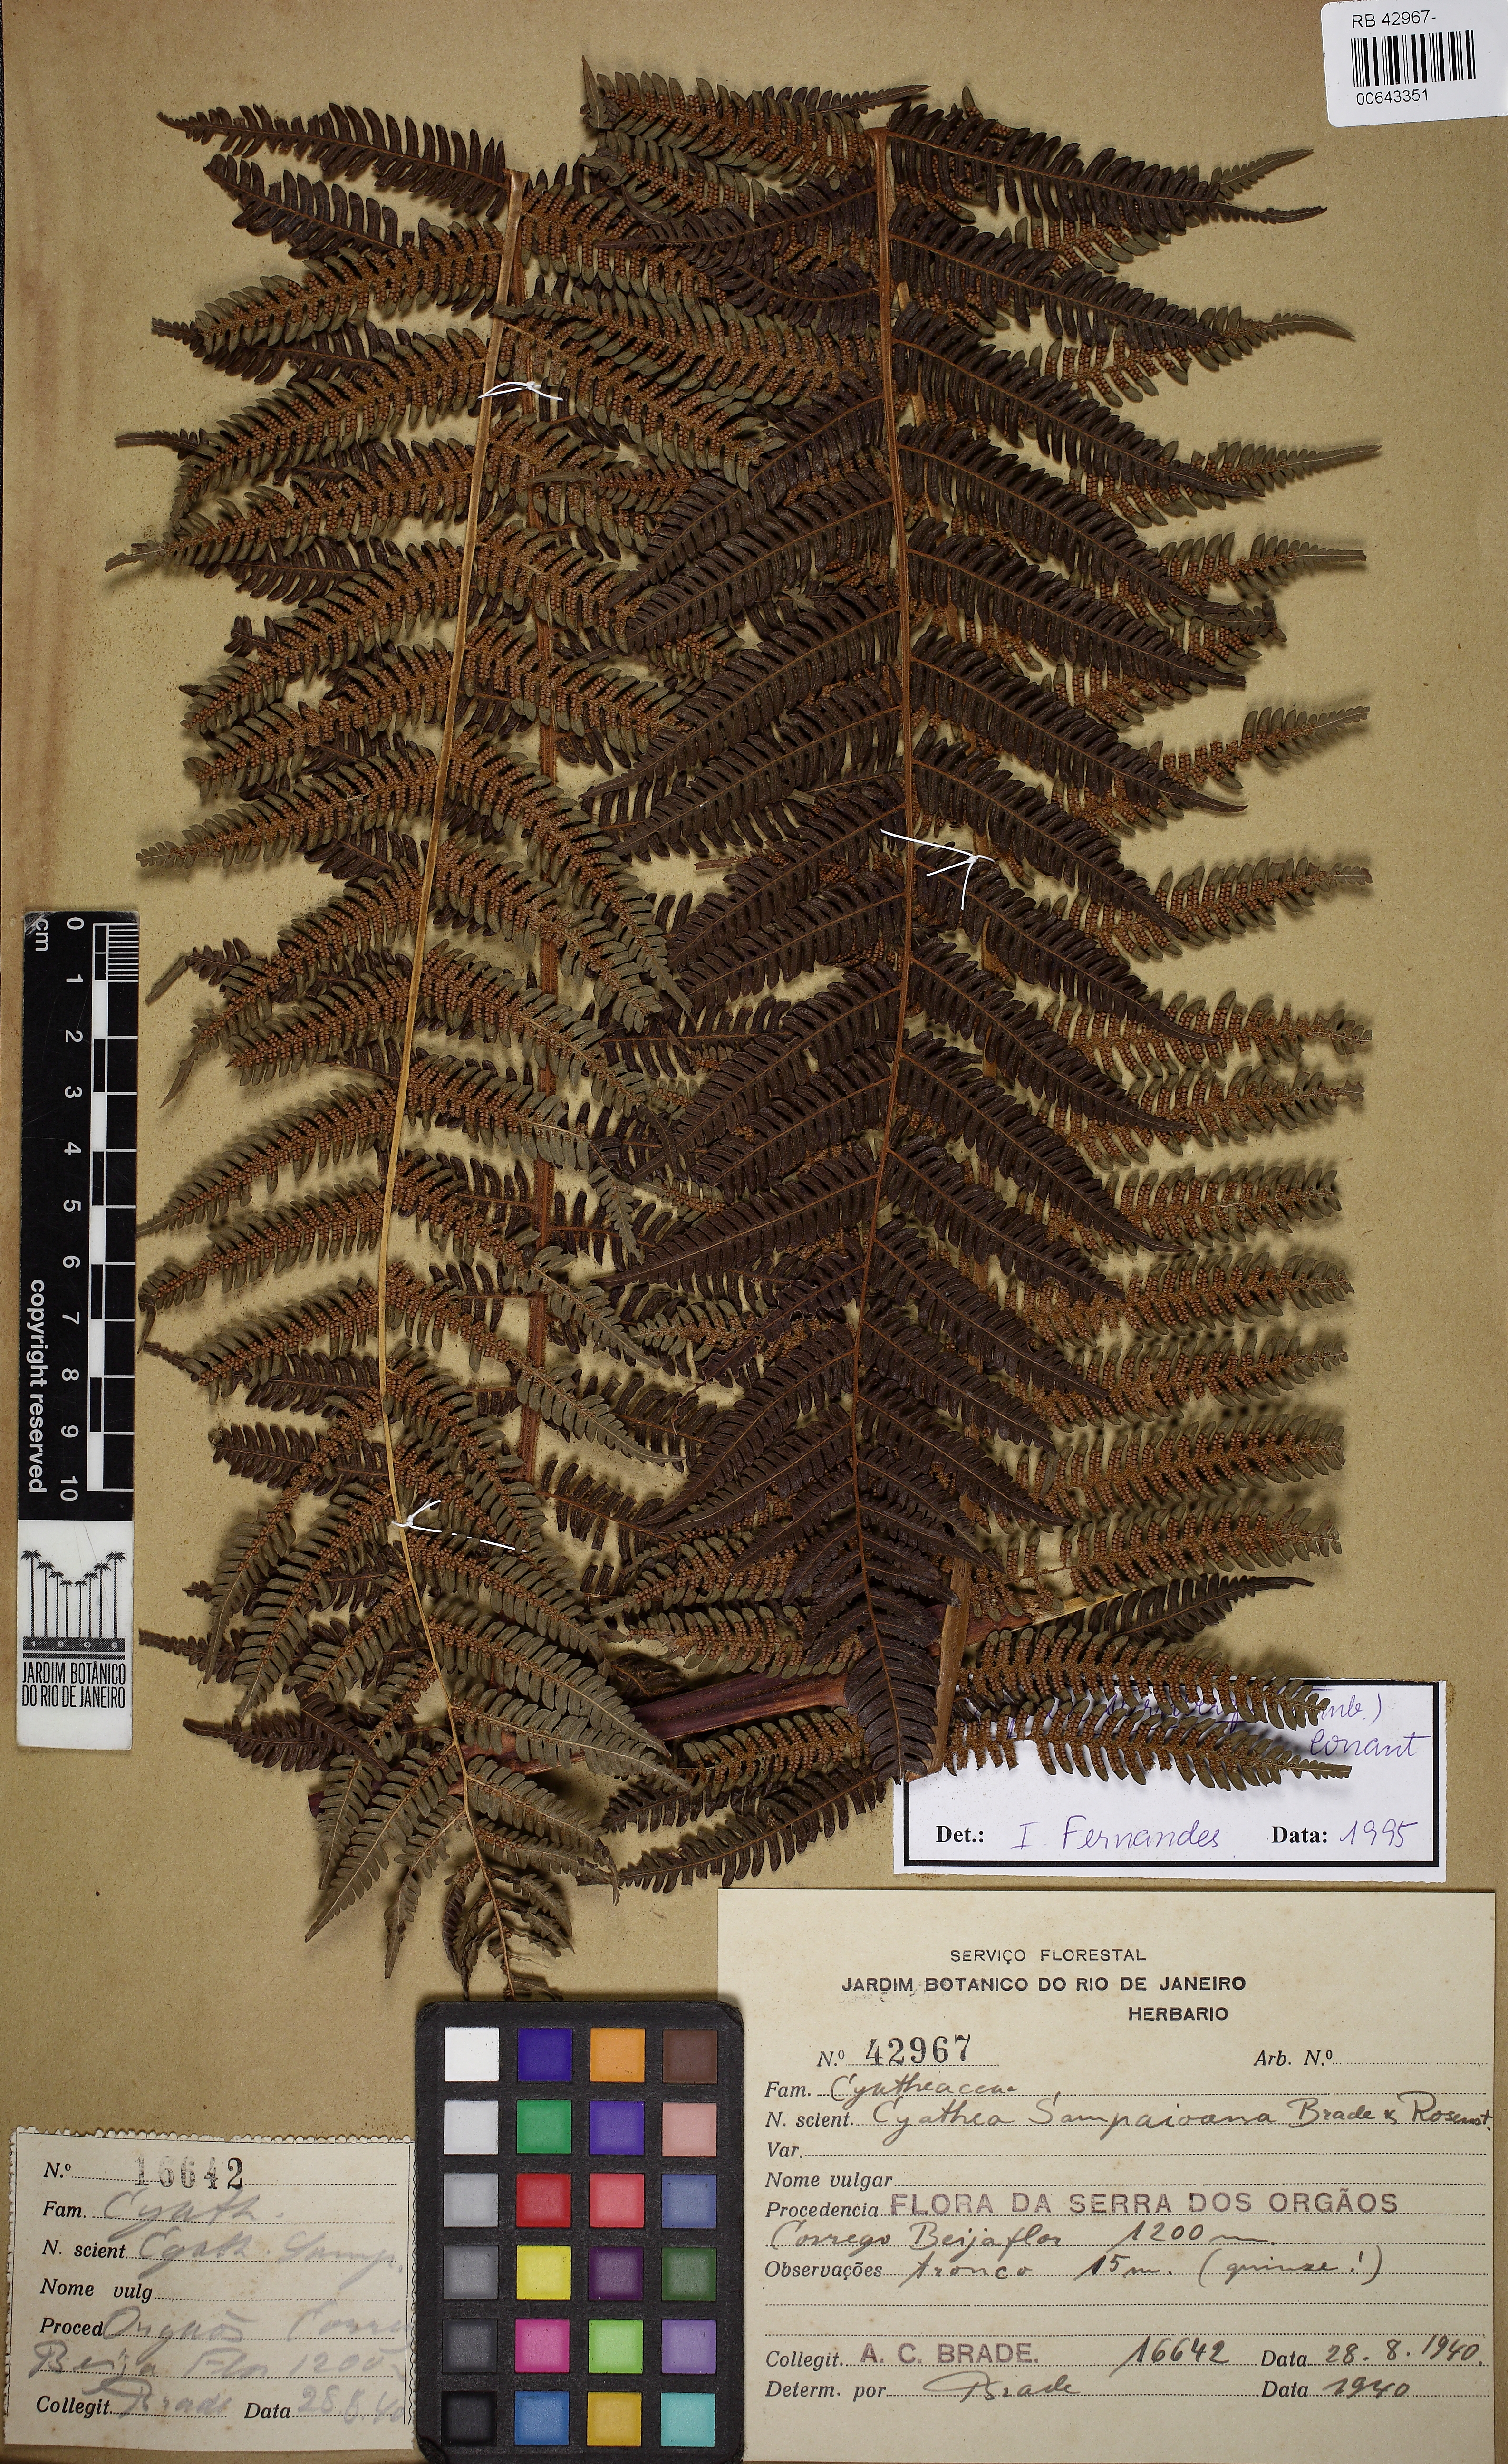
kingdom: Plantae
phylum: Tracheophyta
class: Polypodiopsida
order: Cyatheales
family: Cyatheaceae
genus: Alsophila
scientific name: Alsophila sternbergii
